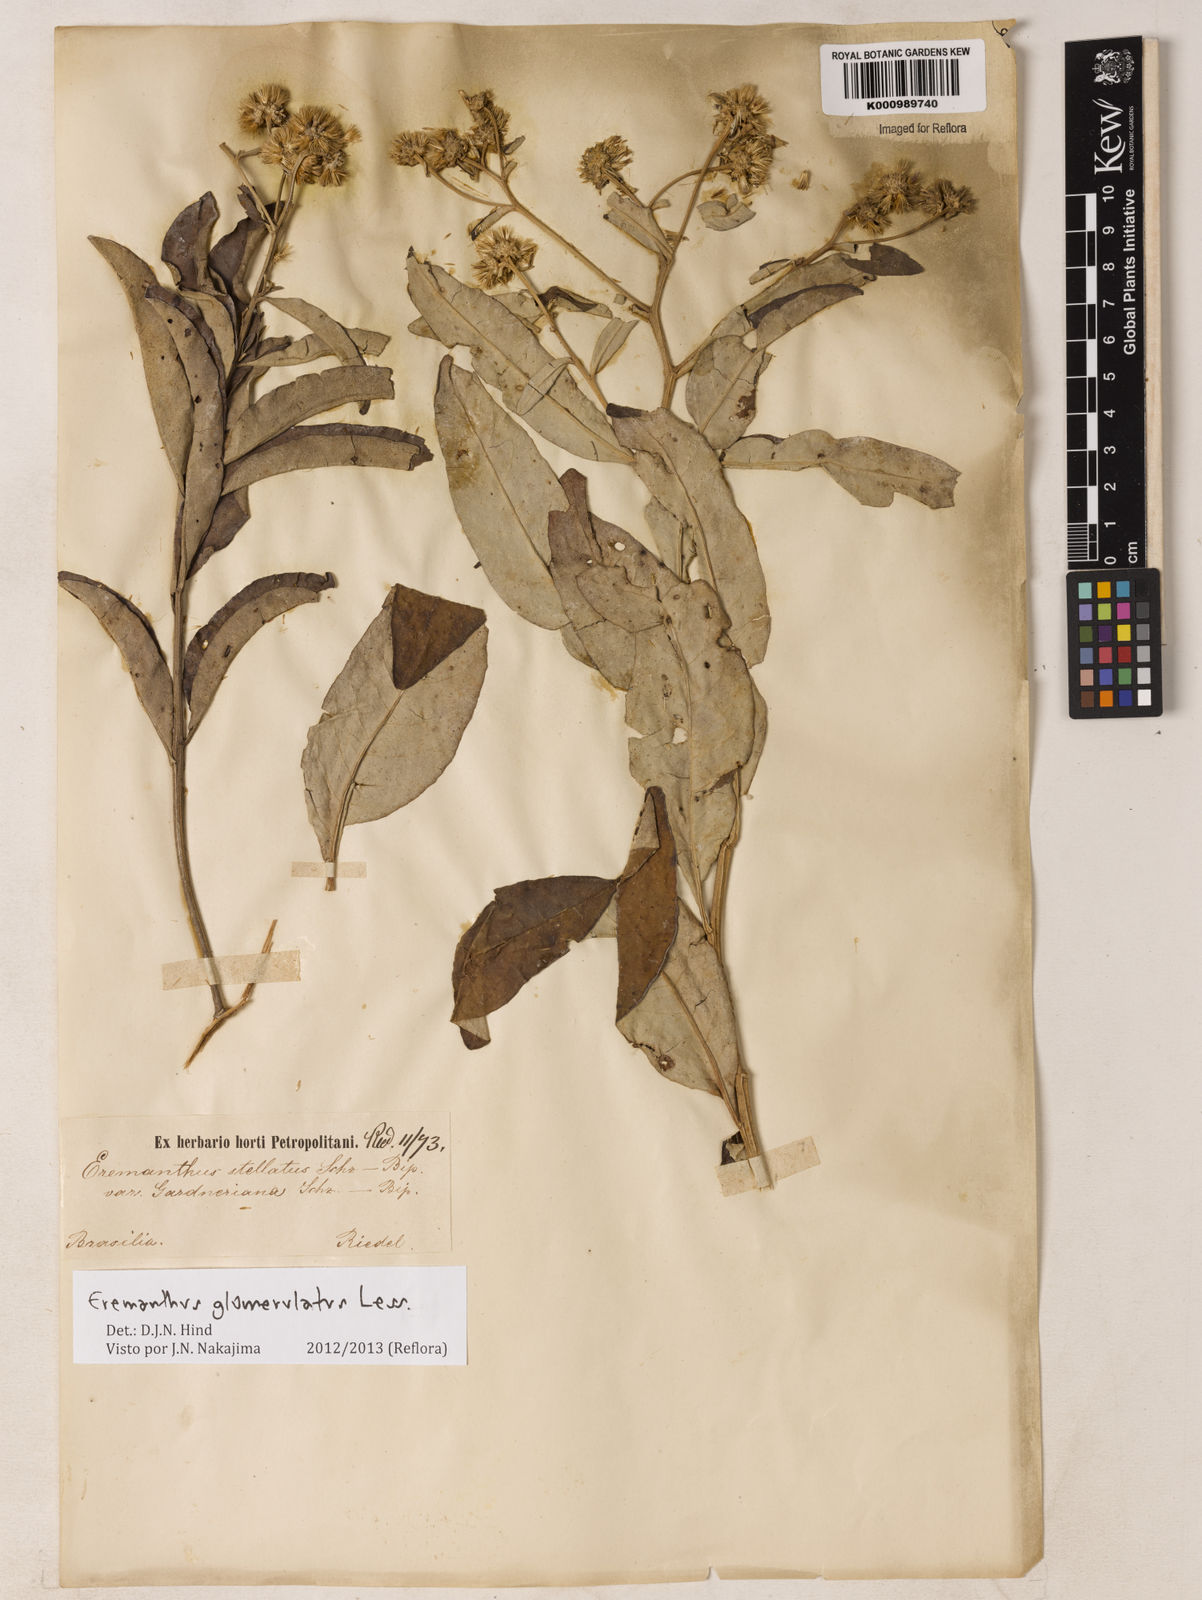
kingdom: Plantae
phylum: Tracheophyta
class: Magnoliopsida
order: Asterales
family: Asteraceae
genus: Eremanthus
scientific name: Eremanthus glomerulatus
